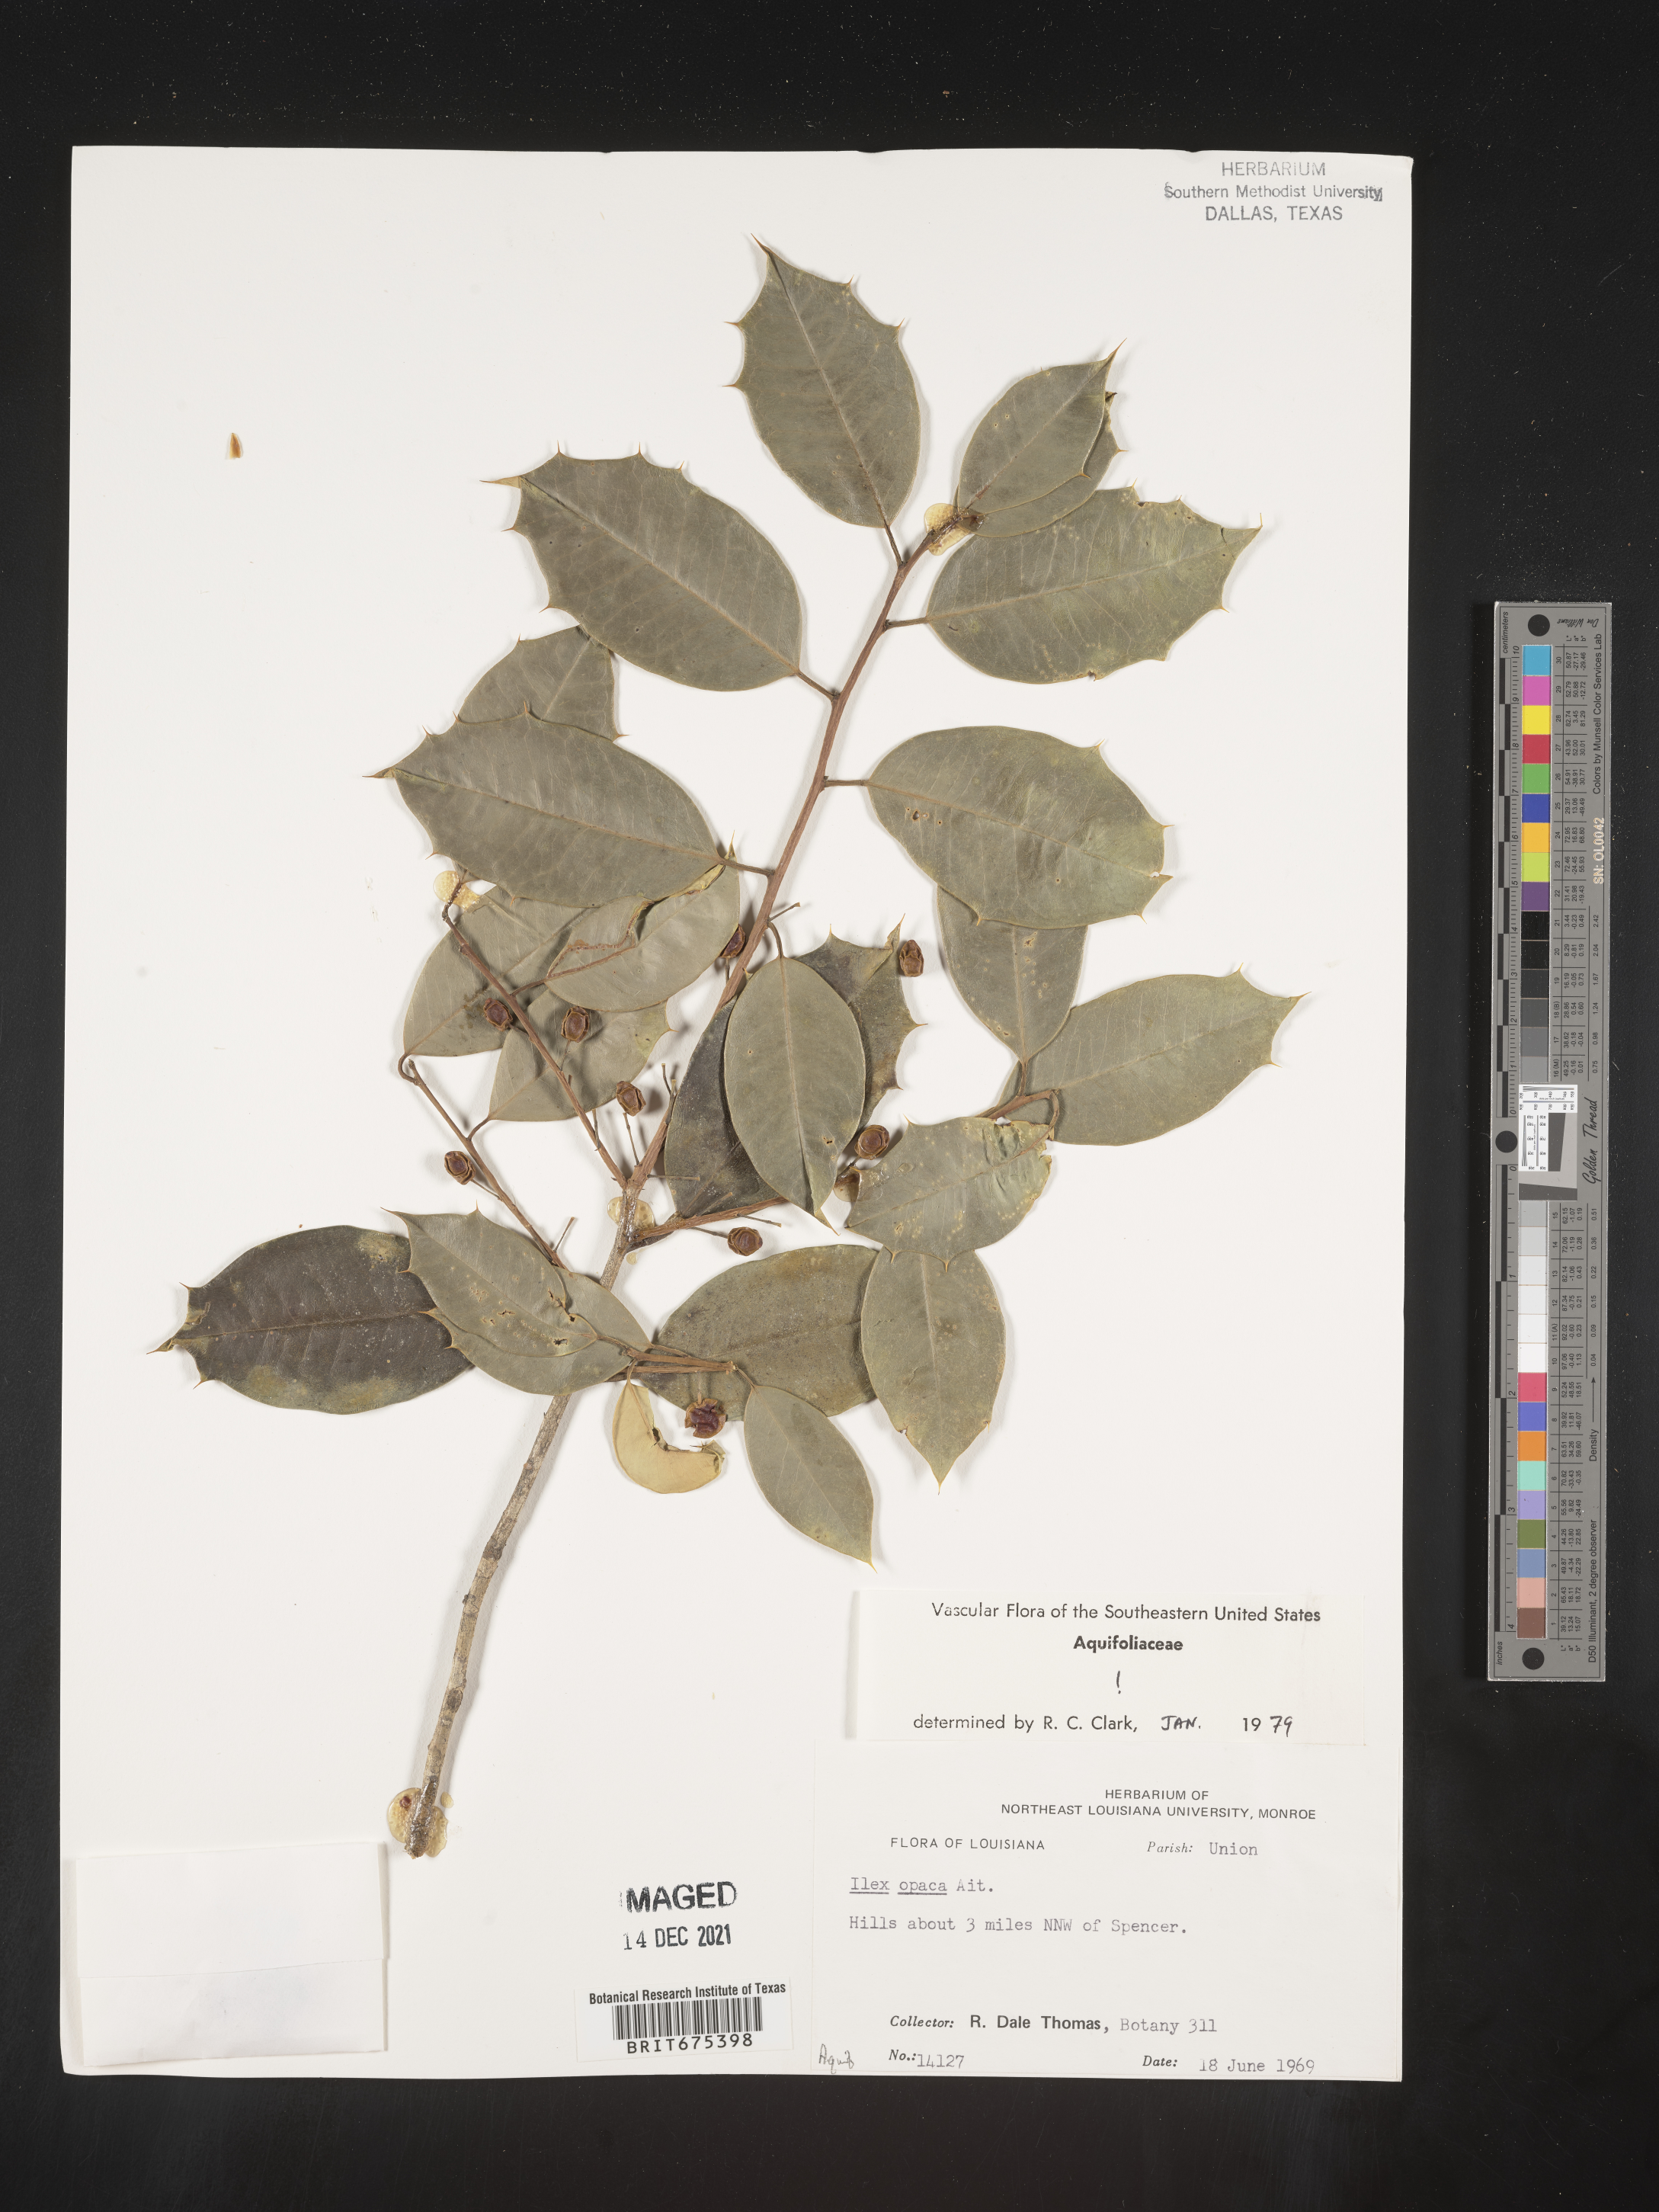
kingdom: Plantae
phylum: Tracheophyta
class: Magnoliopsida
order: Aquifoliales
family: Aquifoliaceae
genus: Ilex
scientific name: Ilex opaca
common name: American holly
